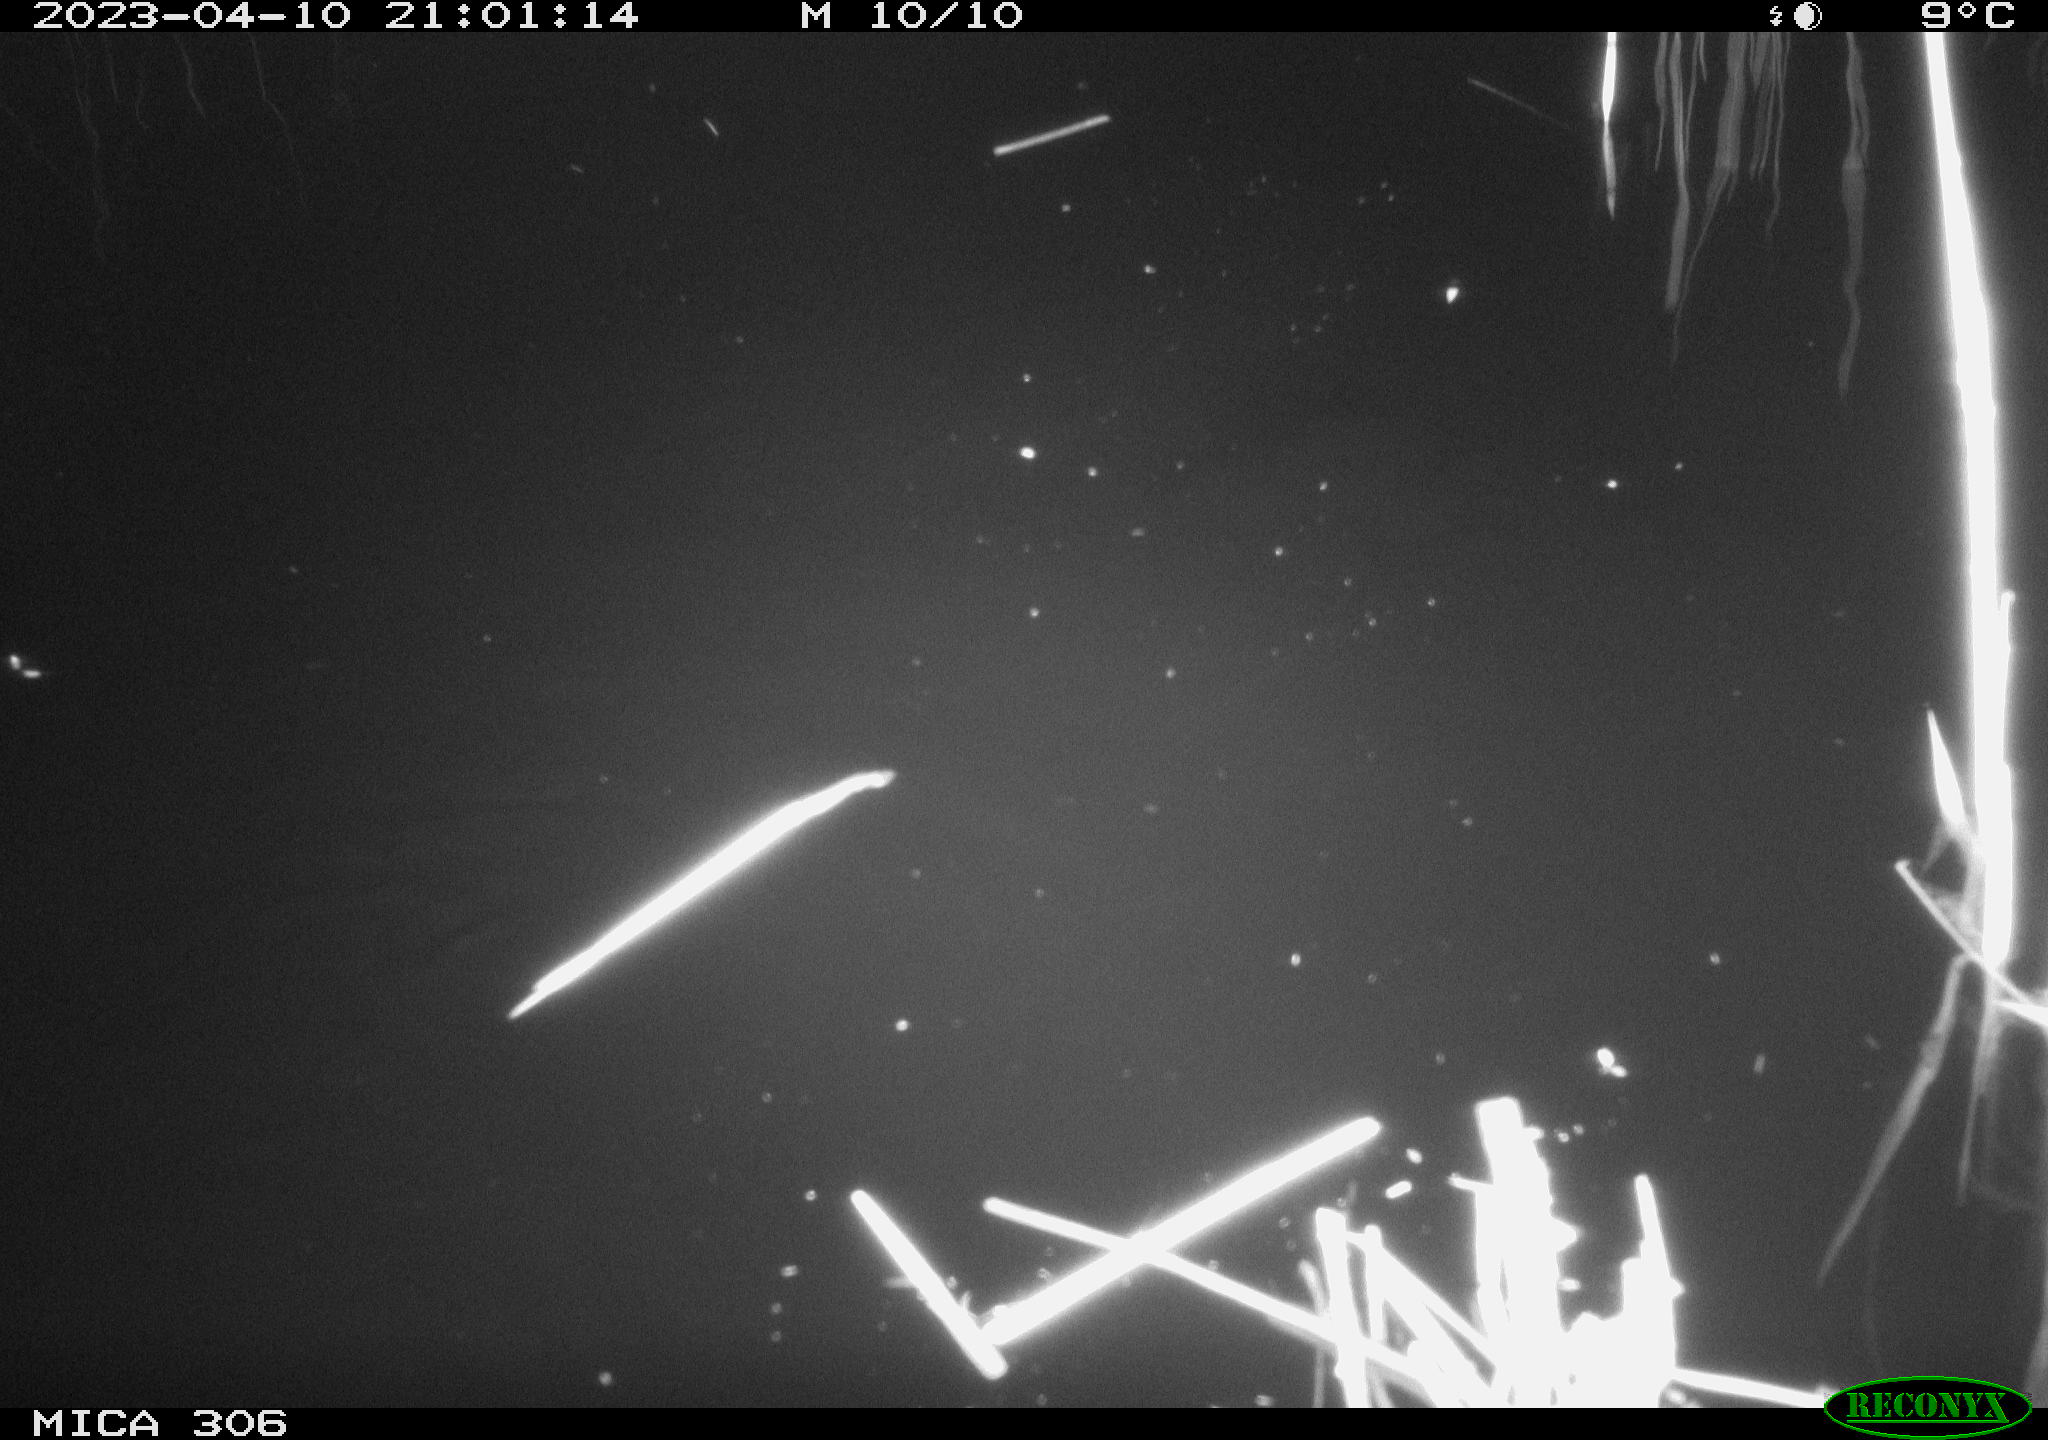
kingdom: Animalia
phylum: Chordata
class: Aves
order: Anseriformes
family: Anatidae
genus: Anas
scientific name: Anas
